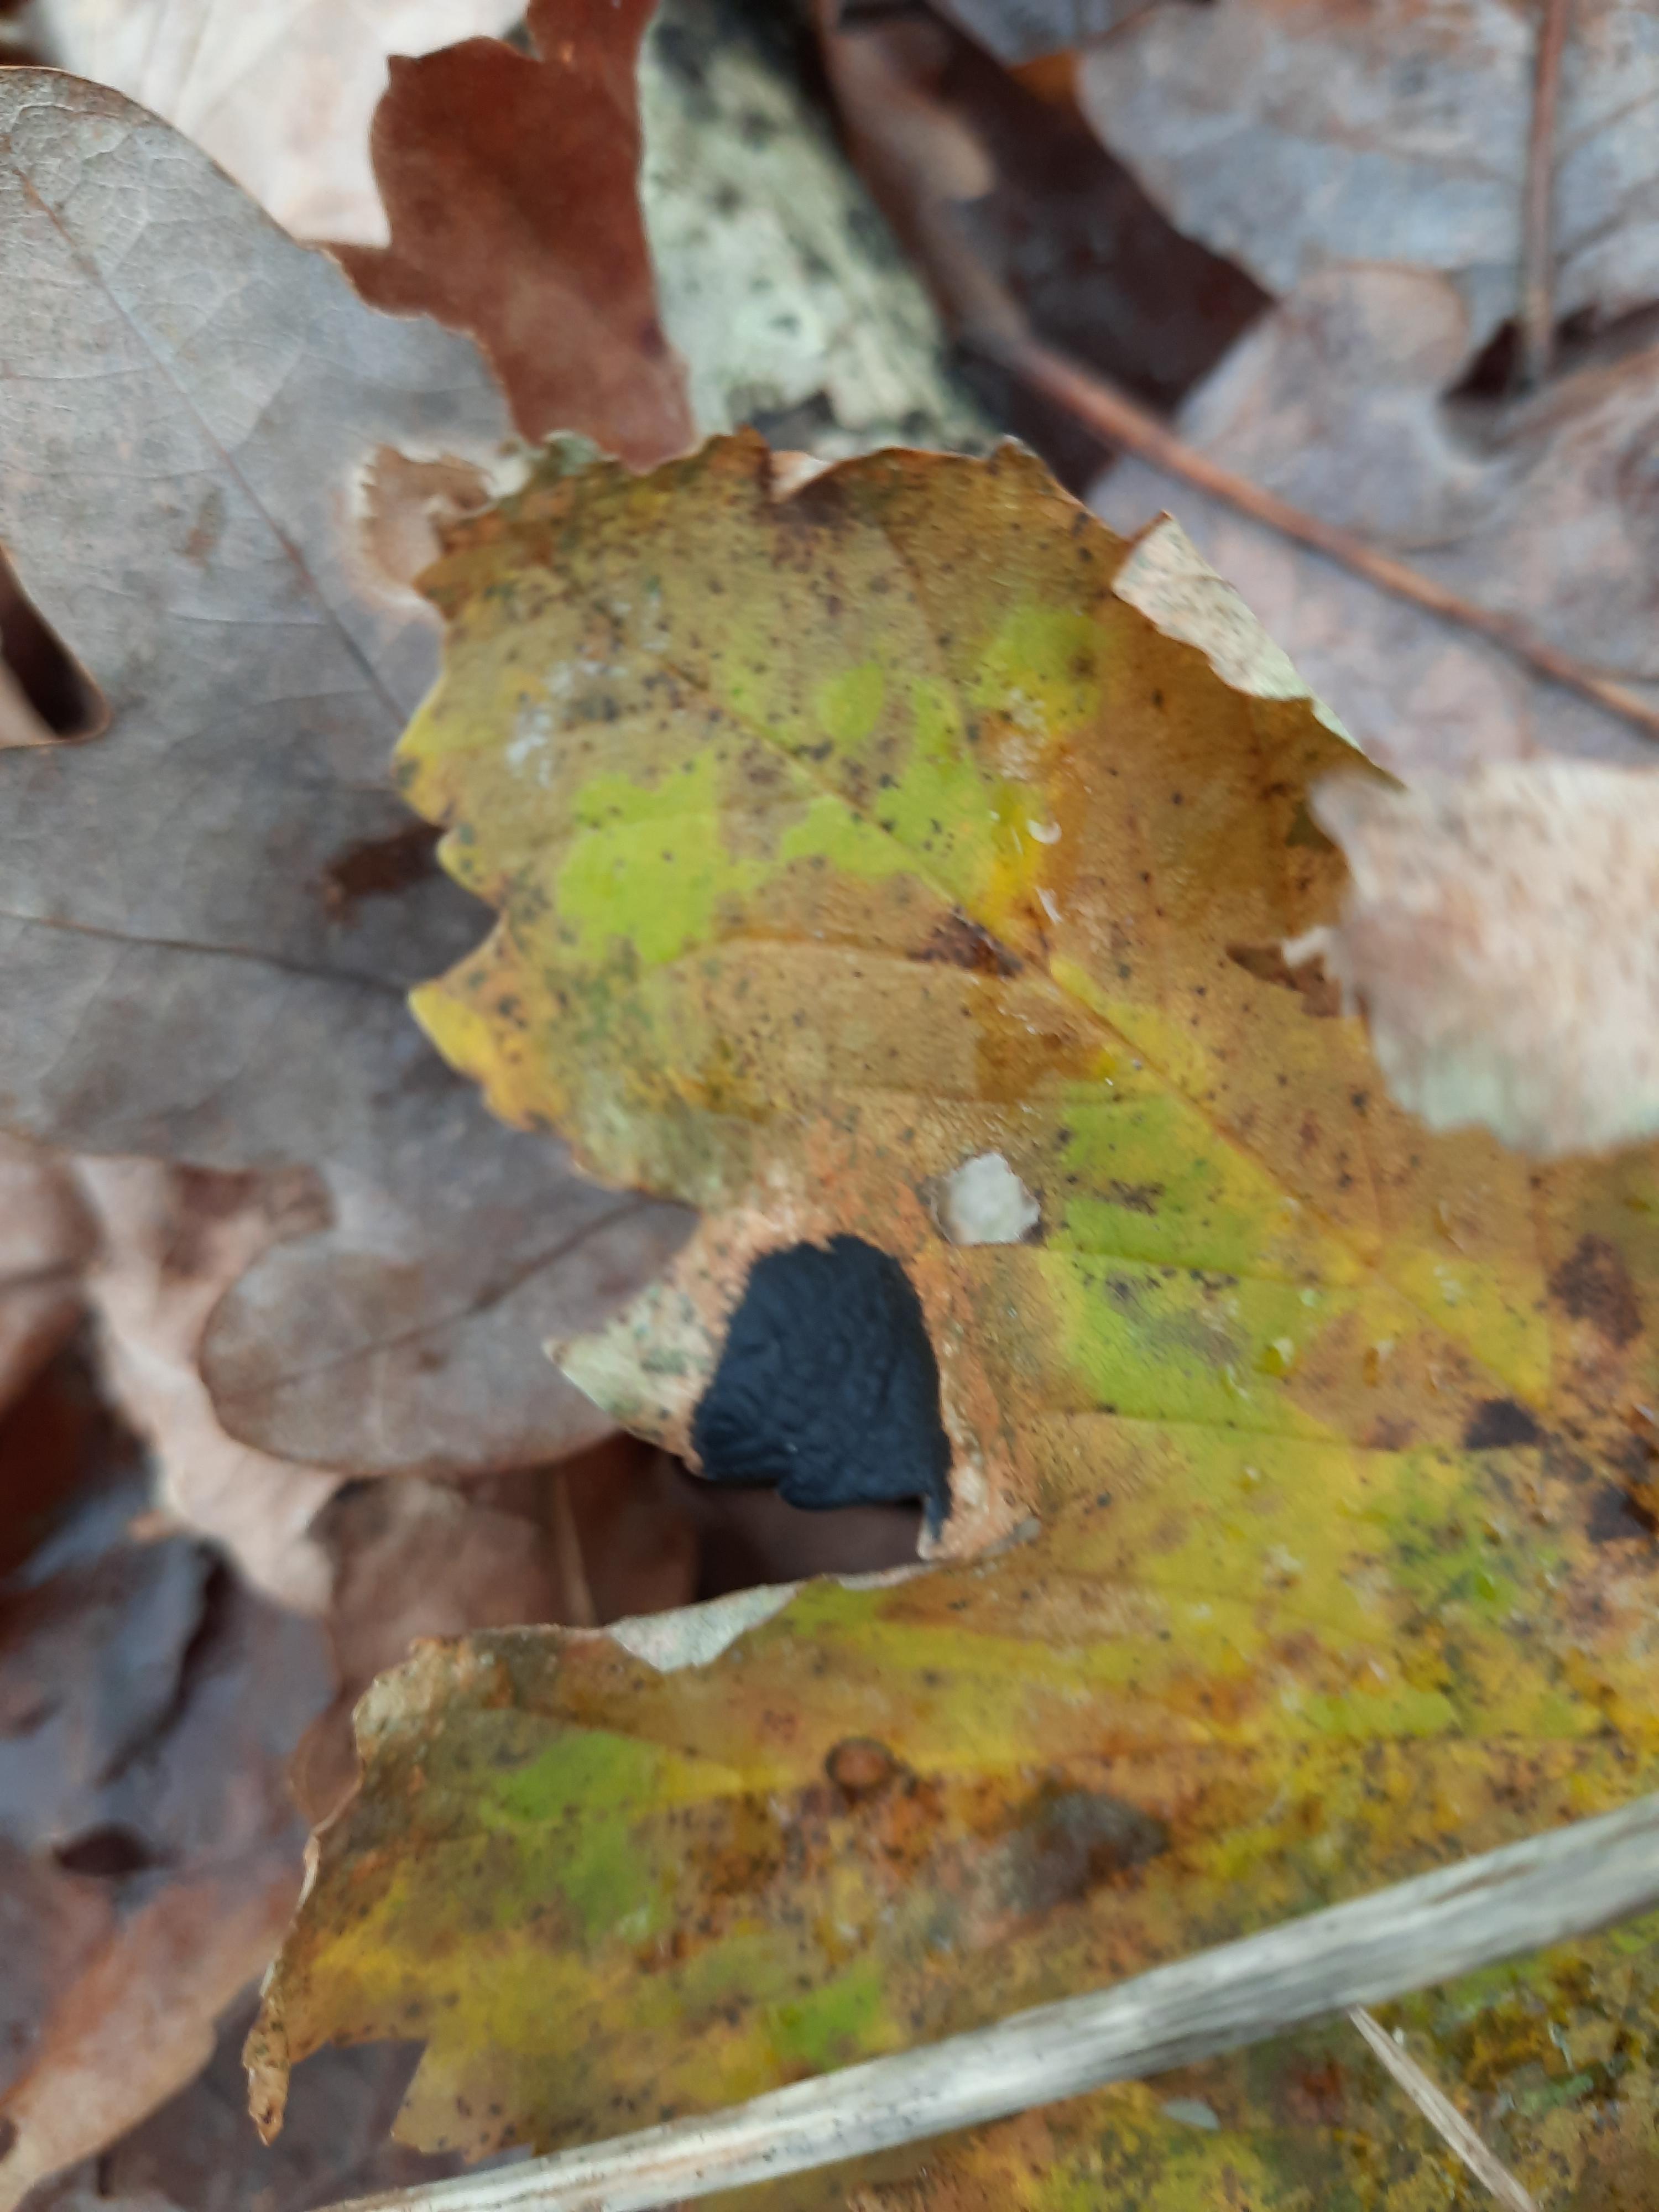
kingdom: Fungi
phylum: Ascomycota
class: Leotiomycetes
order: Rhytismatales
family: Rhytismataceae
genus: Rhytisma
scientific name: Rhytisma acerinum
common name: ahorn-rynkeplet
